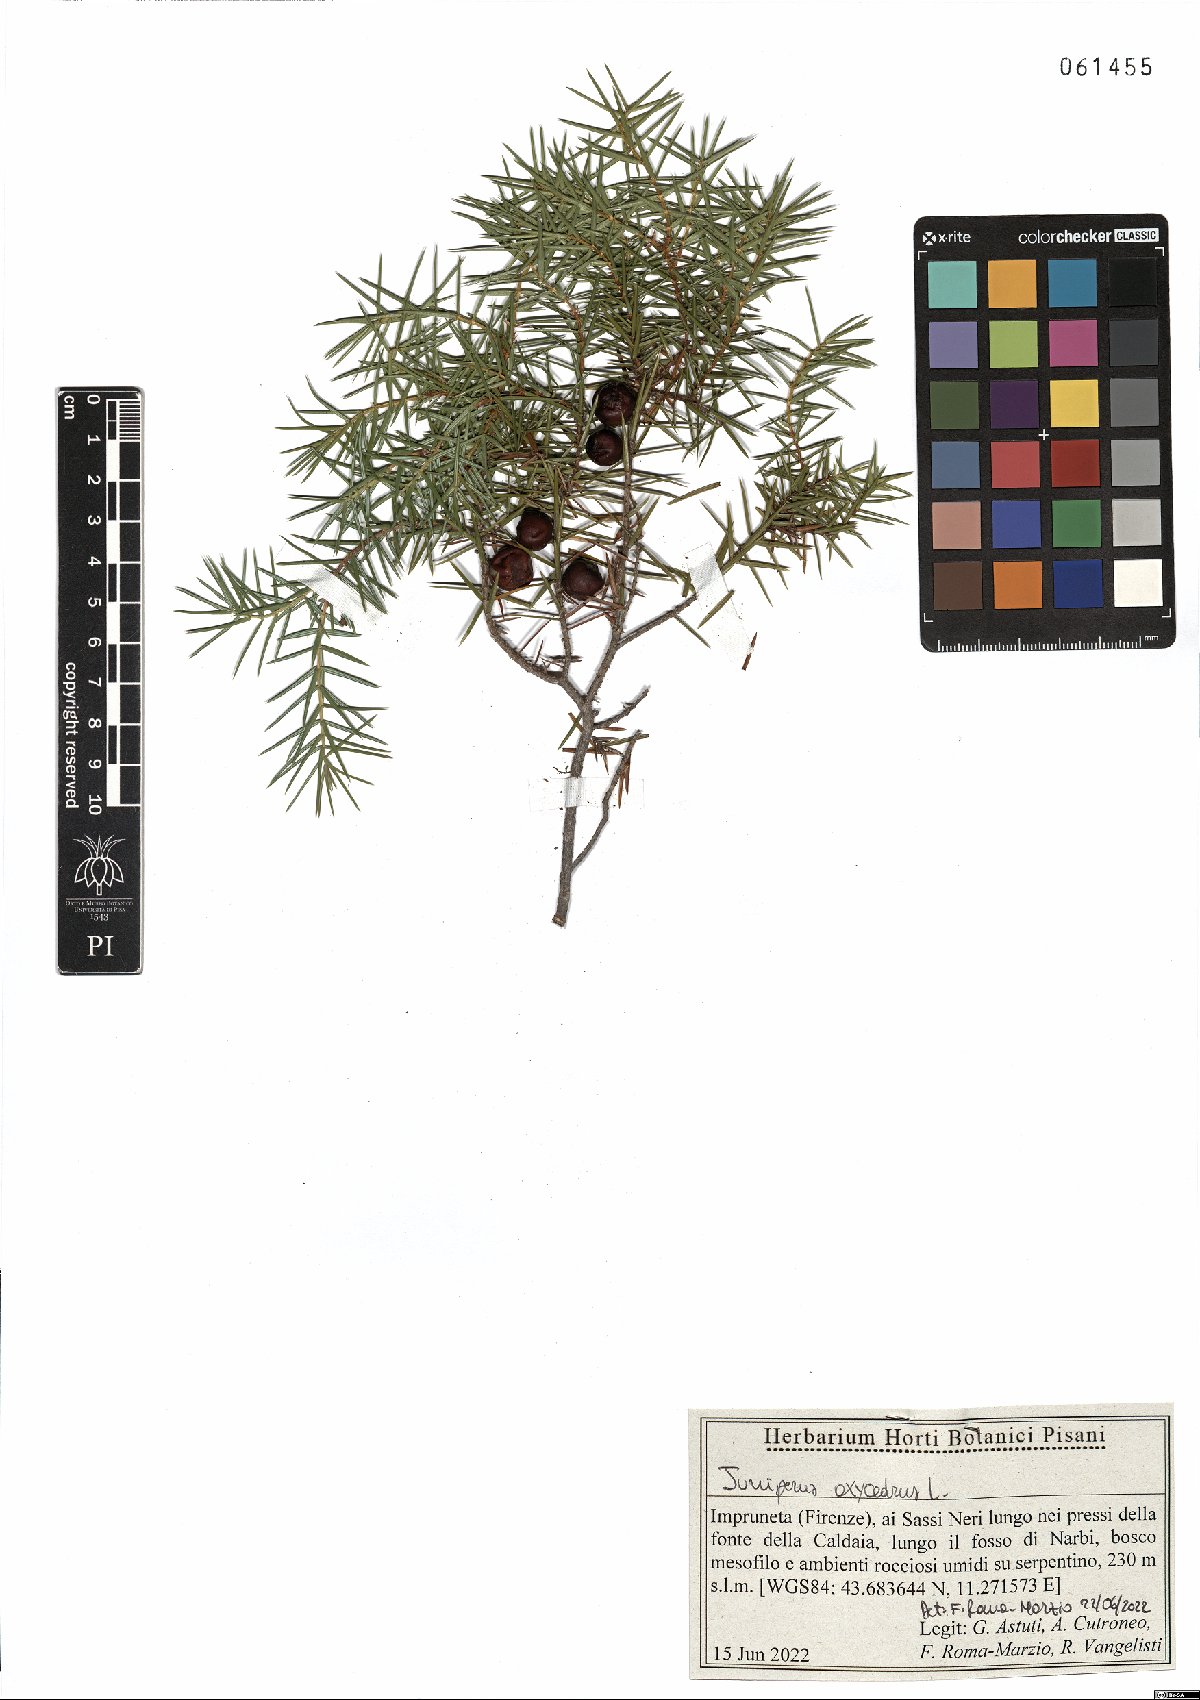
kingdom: Plantae
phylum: Tracheophyta
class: Pinopsida
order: Pinales
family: Cupressaceae
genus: Juniperus
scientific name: Juniperus oxycedrus
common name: Prickly juniper
